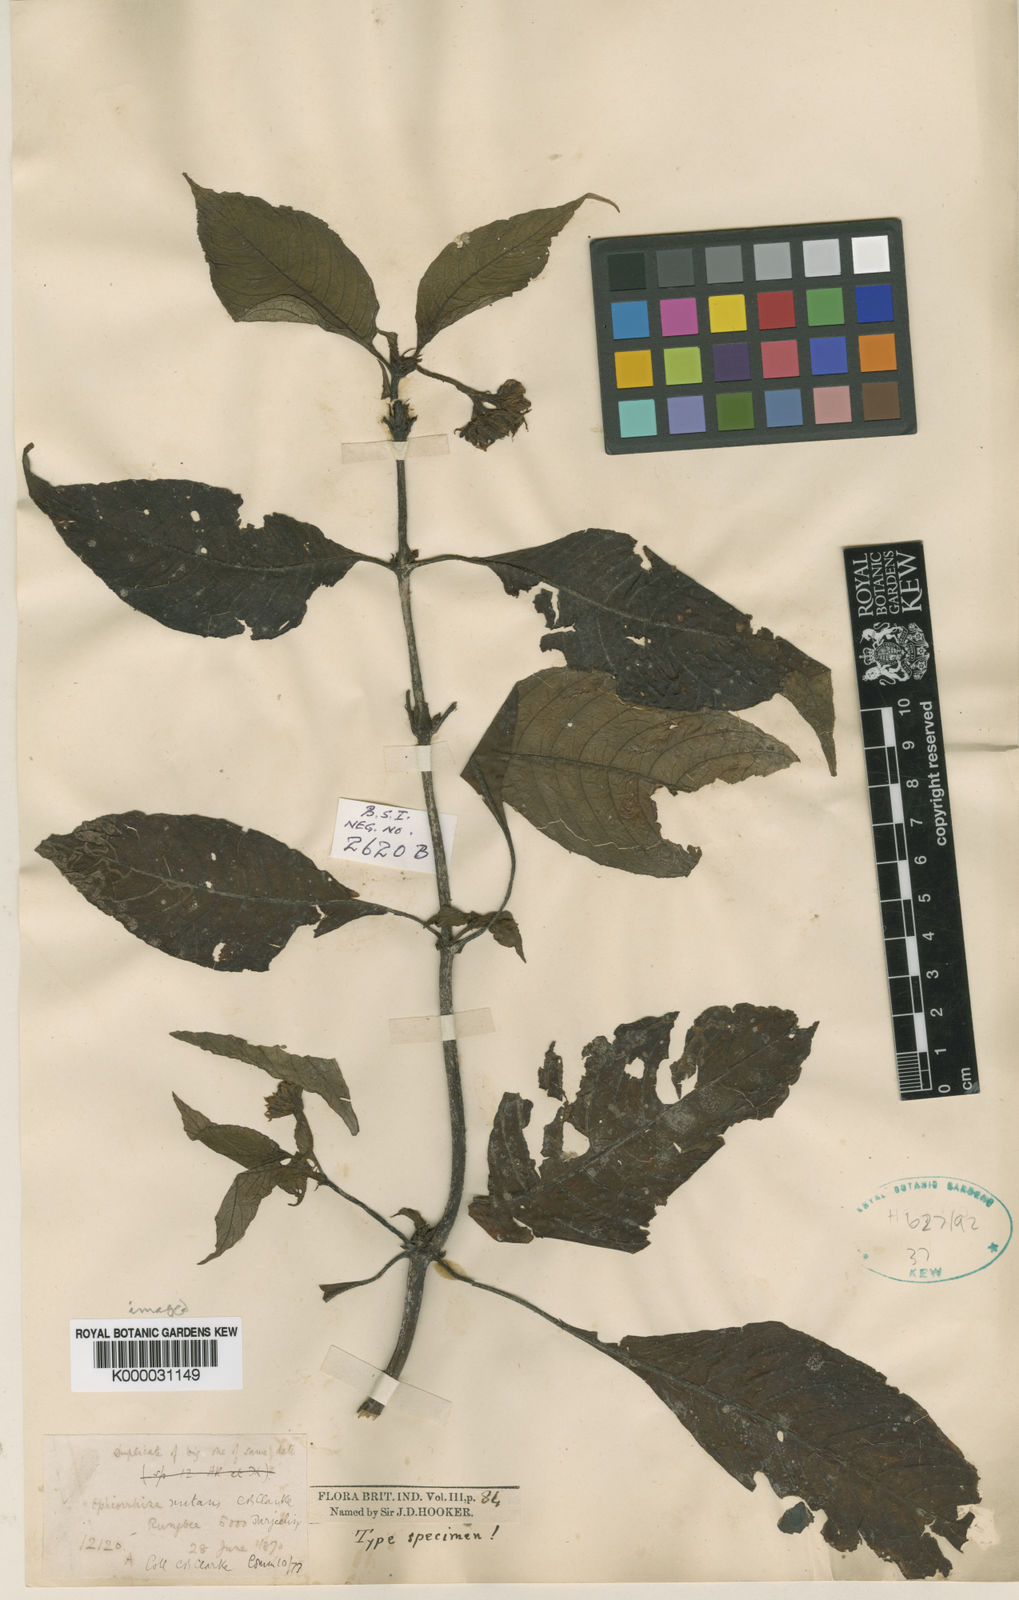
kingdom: Plantae
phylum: Tracheophyta
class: Magnoliopsida
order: Gentianales
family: Rubiaceae
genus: Ophiorrhiza
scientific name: Ophiorrhiza nutans
